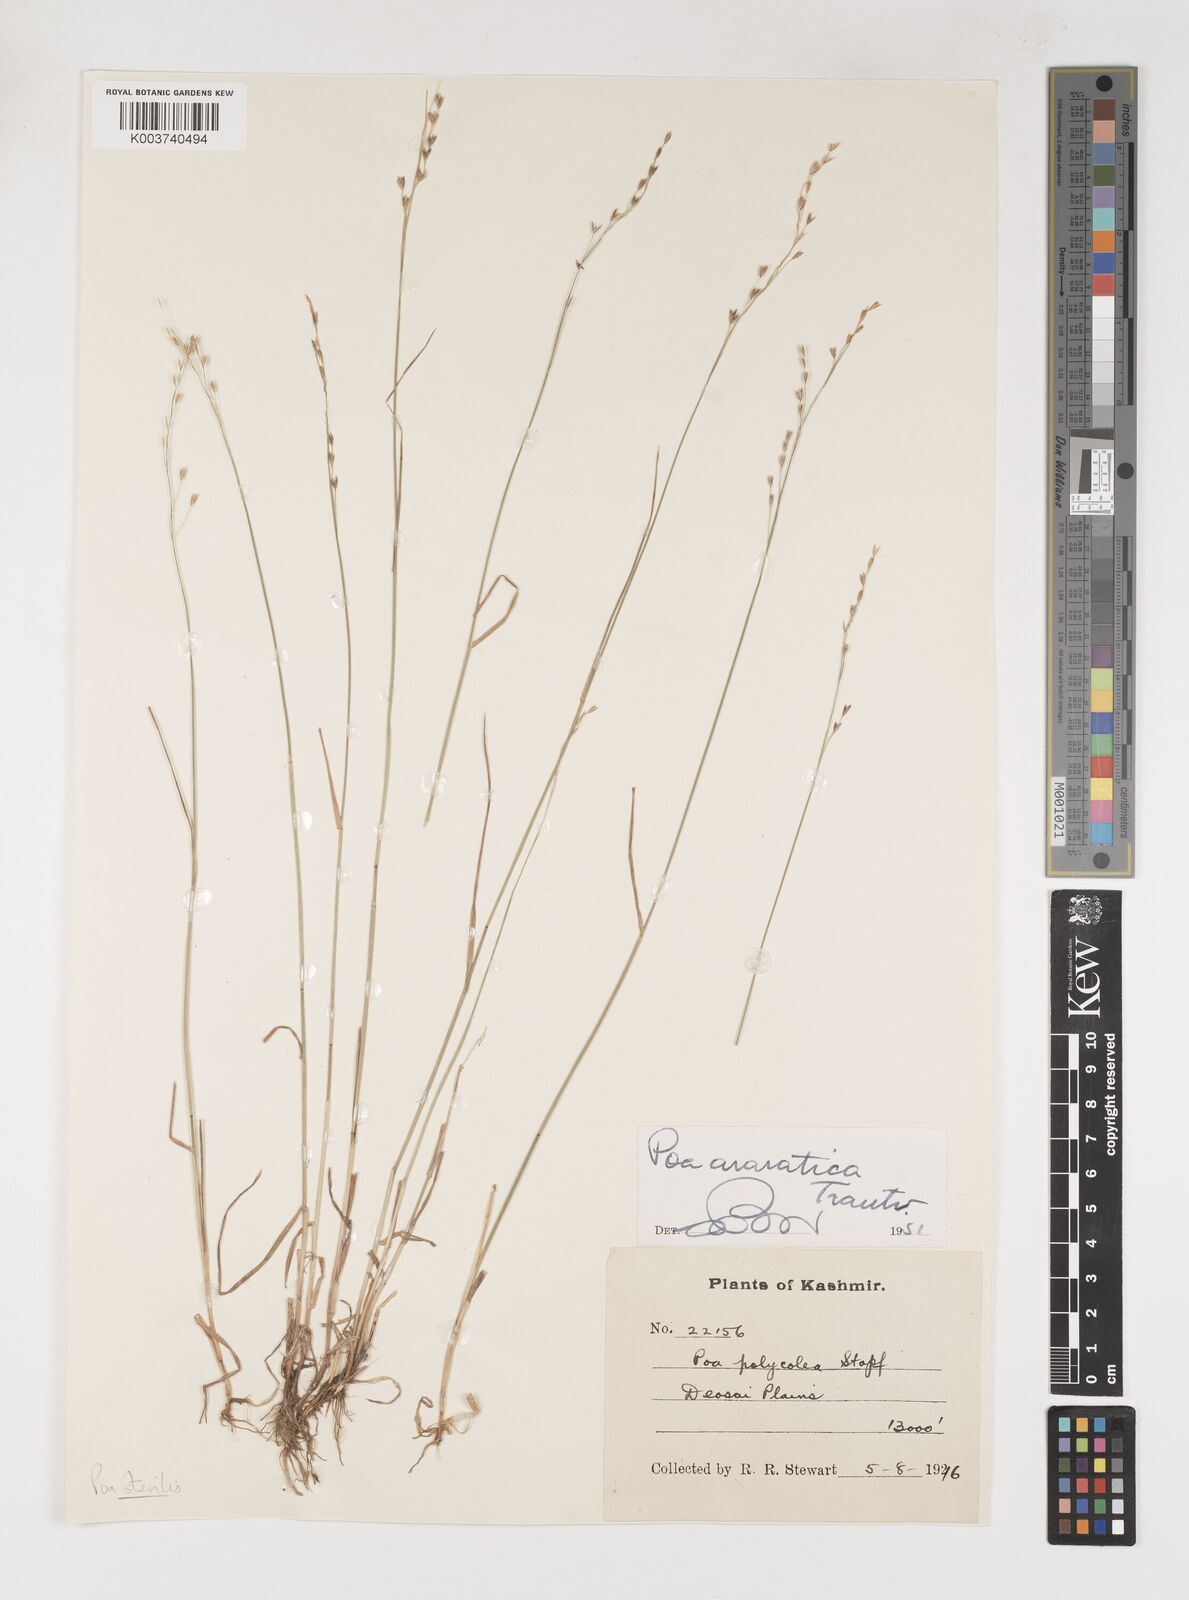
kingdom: Plantae
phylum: Tracheophyta
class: Liliopsida
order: Poales
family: Poaceae
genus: Poa
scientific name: Poa sterilis
